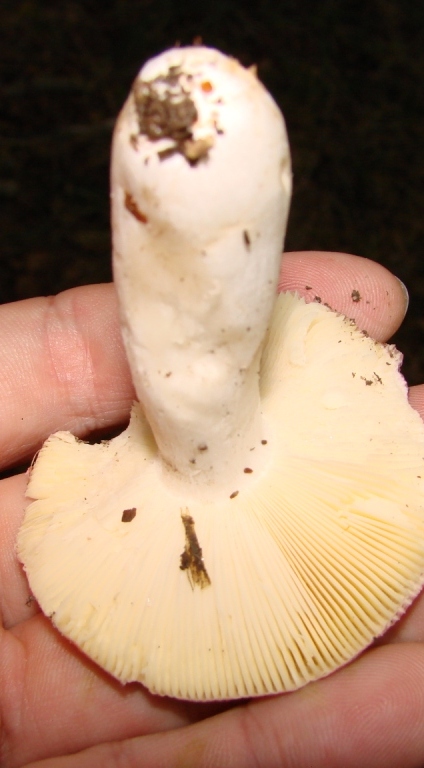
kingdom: Fungi
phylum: Basidiomycota
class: Agaricomycetes
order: Russulales
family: Russulaceae
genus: Russula
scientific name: Russula
